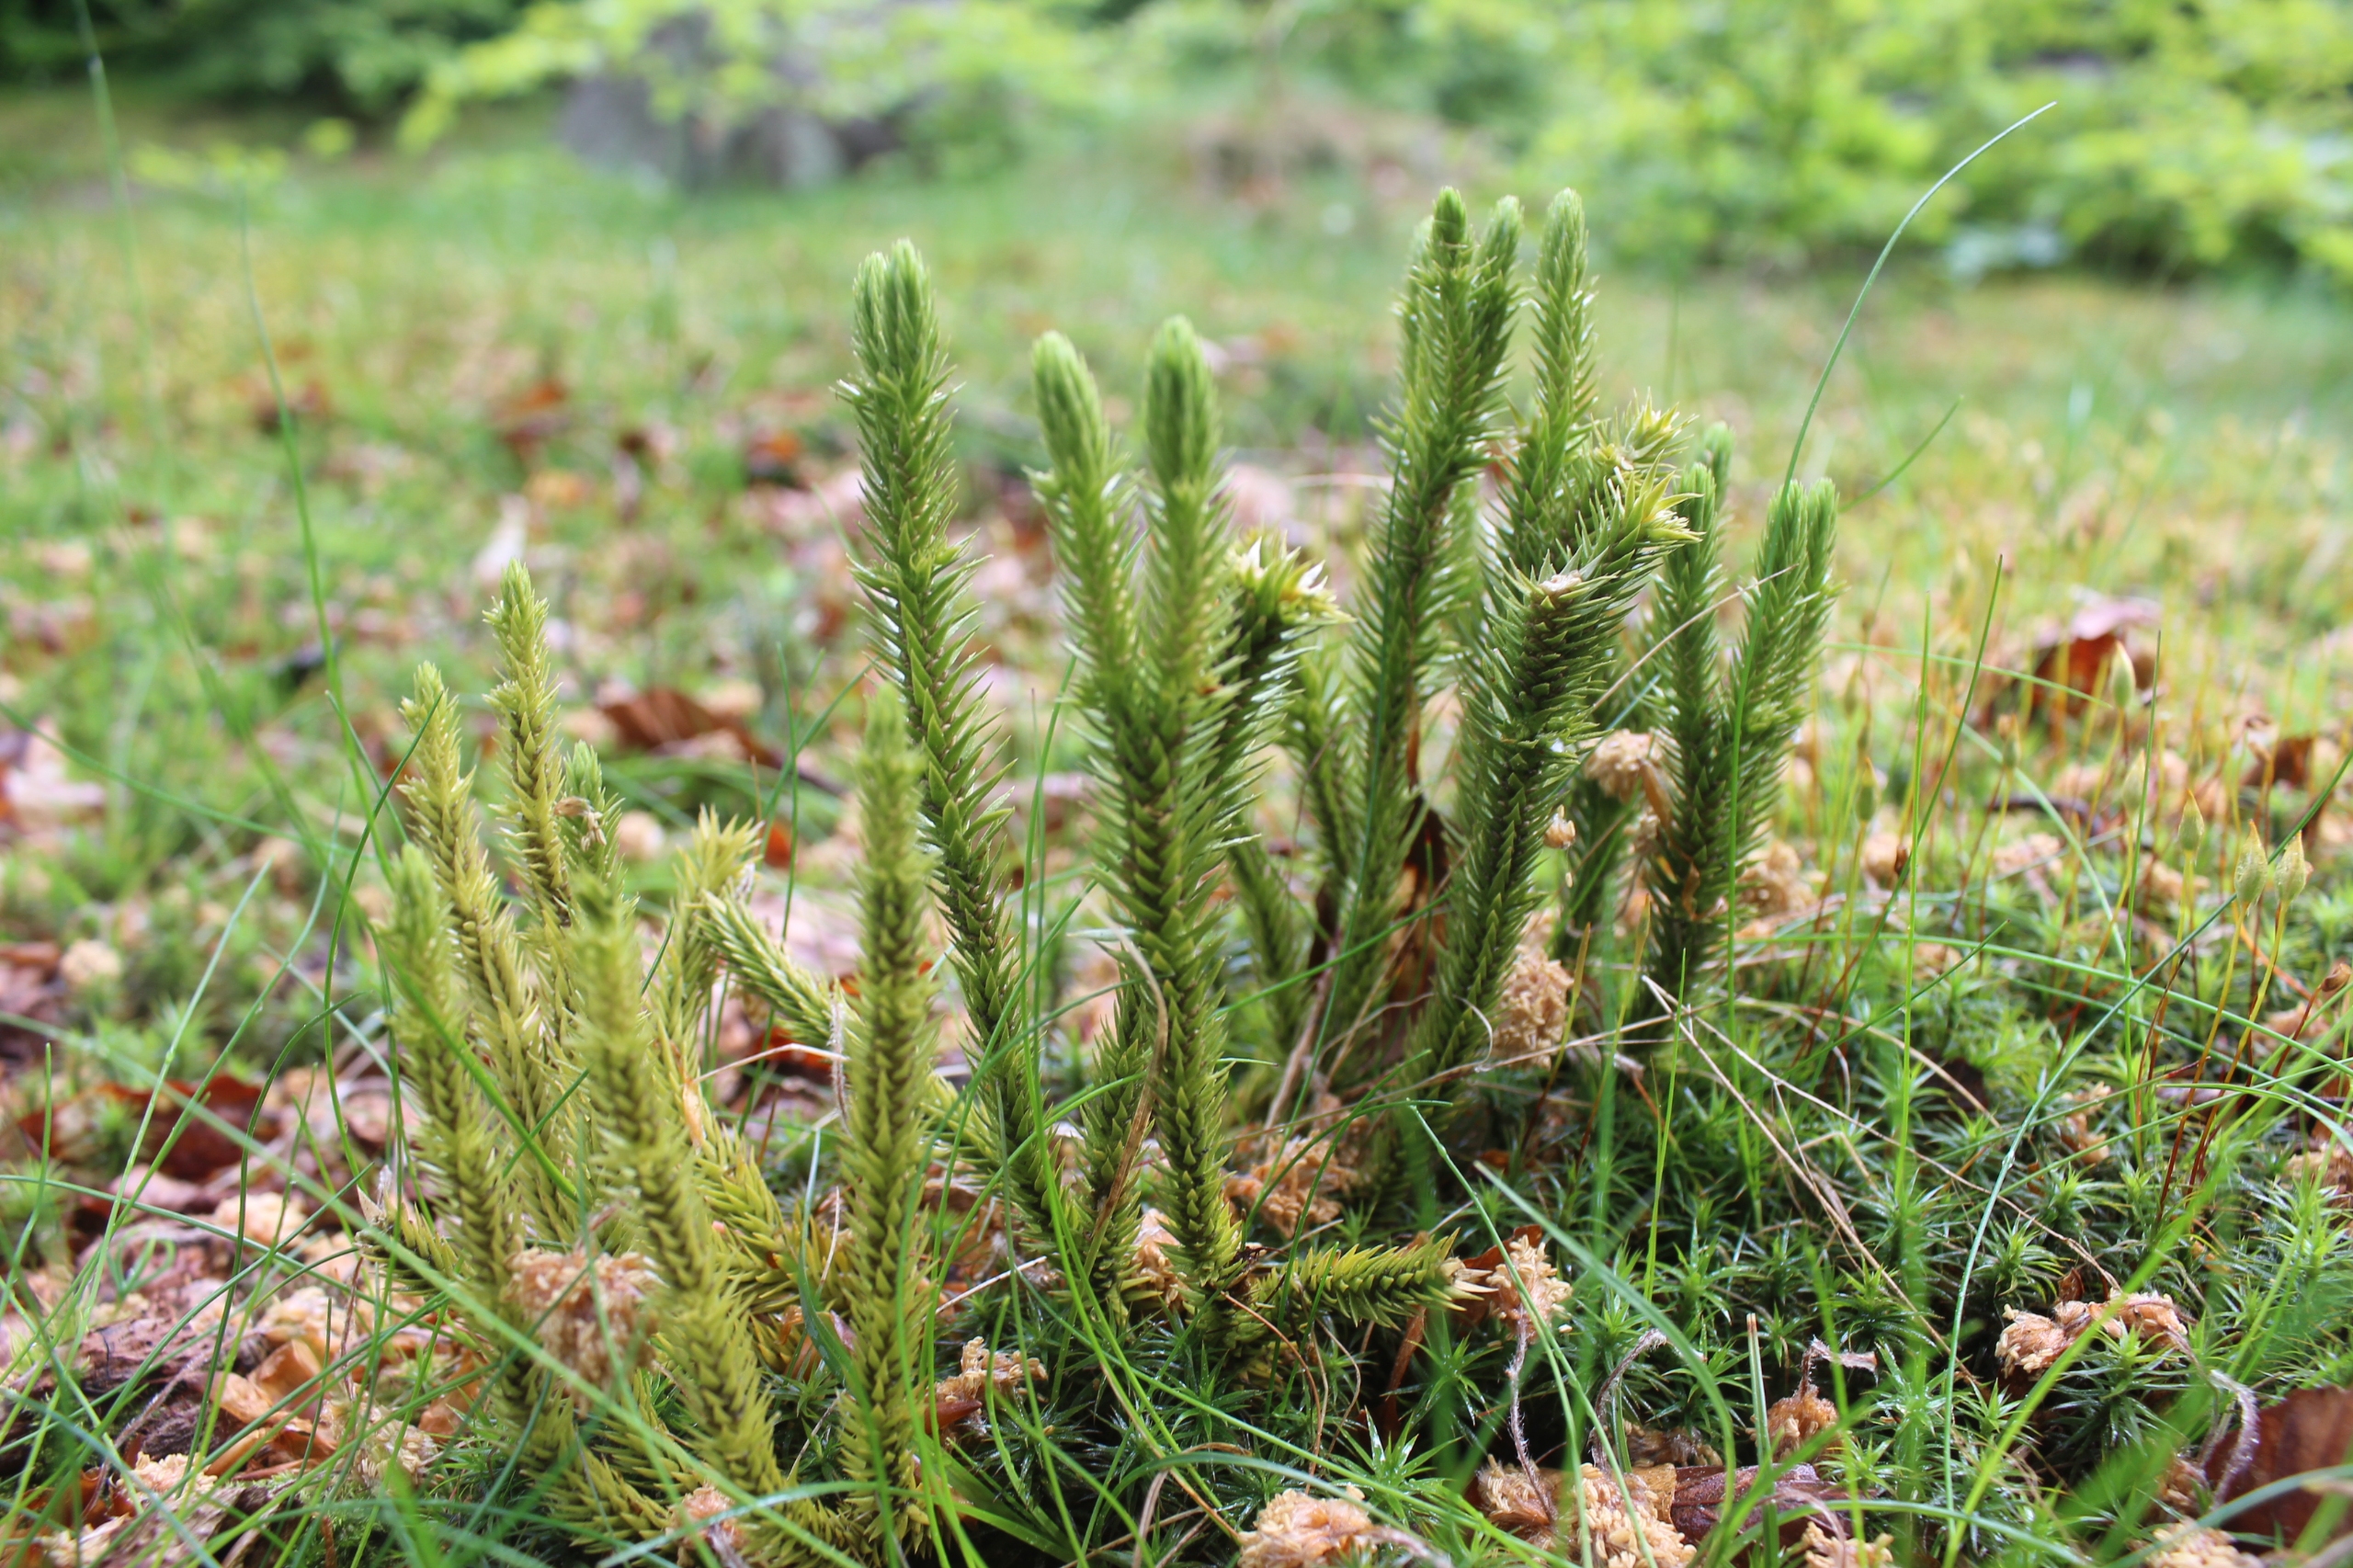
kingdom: Plantae
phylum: Tracheophyta
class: Lycopodiopsida
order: Lycopodiales
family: Lycopodiaceae
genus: Huperzia
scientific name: Huperzia selago
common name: Otteradet ulvefod
